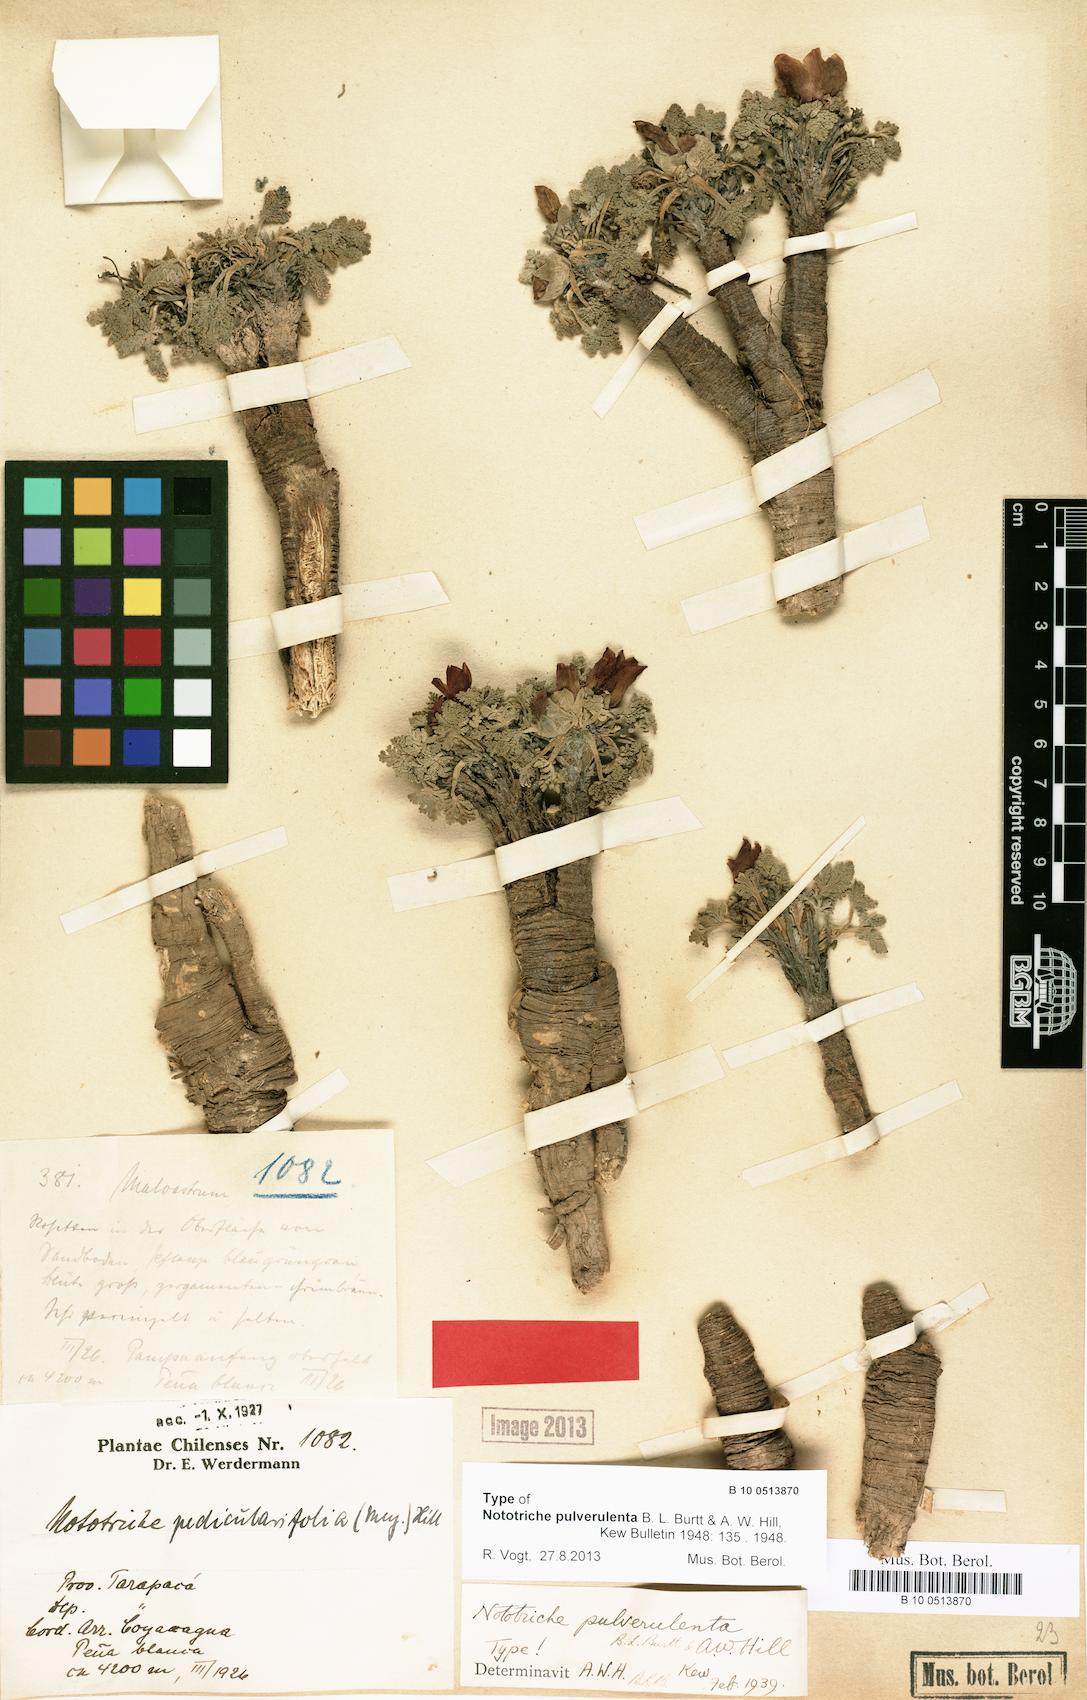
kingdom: Plantae
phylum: Tracheophyta
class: Magnoliopsida
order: Malvales
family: Malvaceae
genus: Nototriche
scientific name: Nototriche pulverulenta
